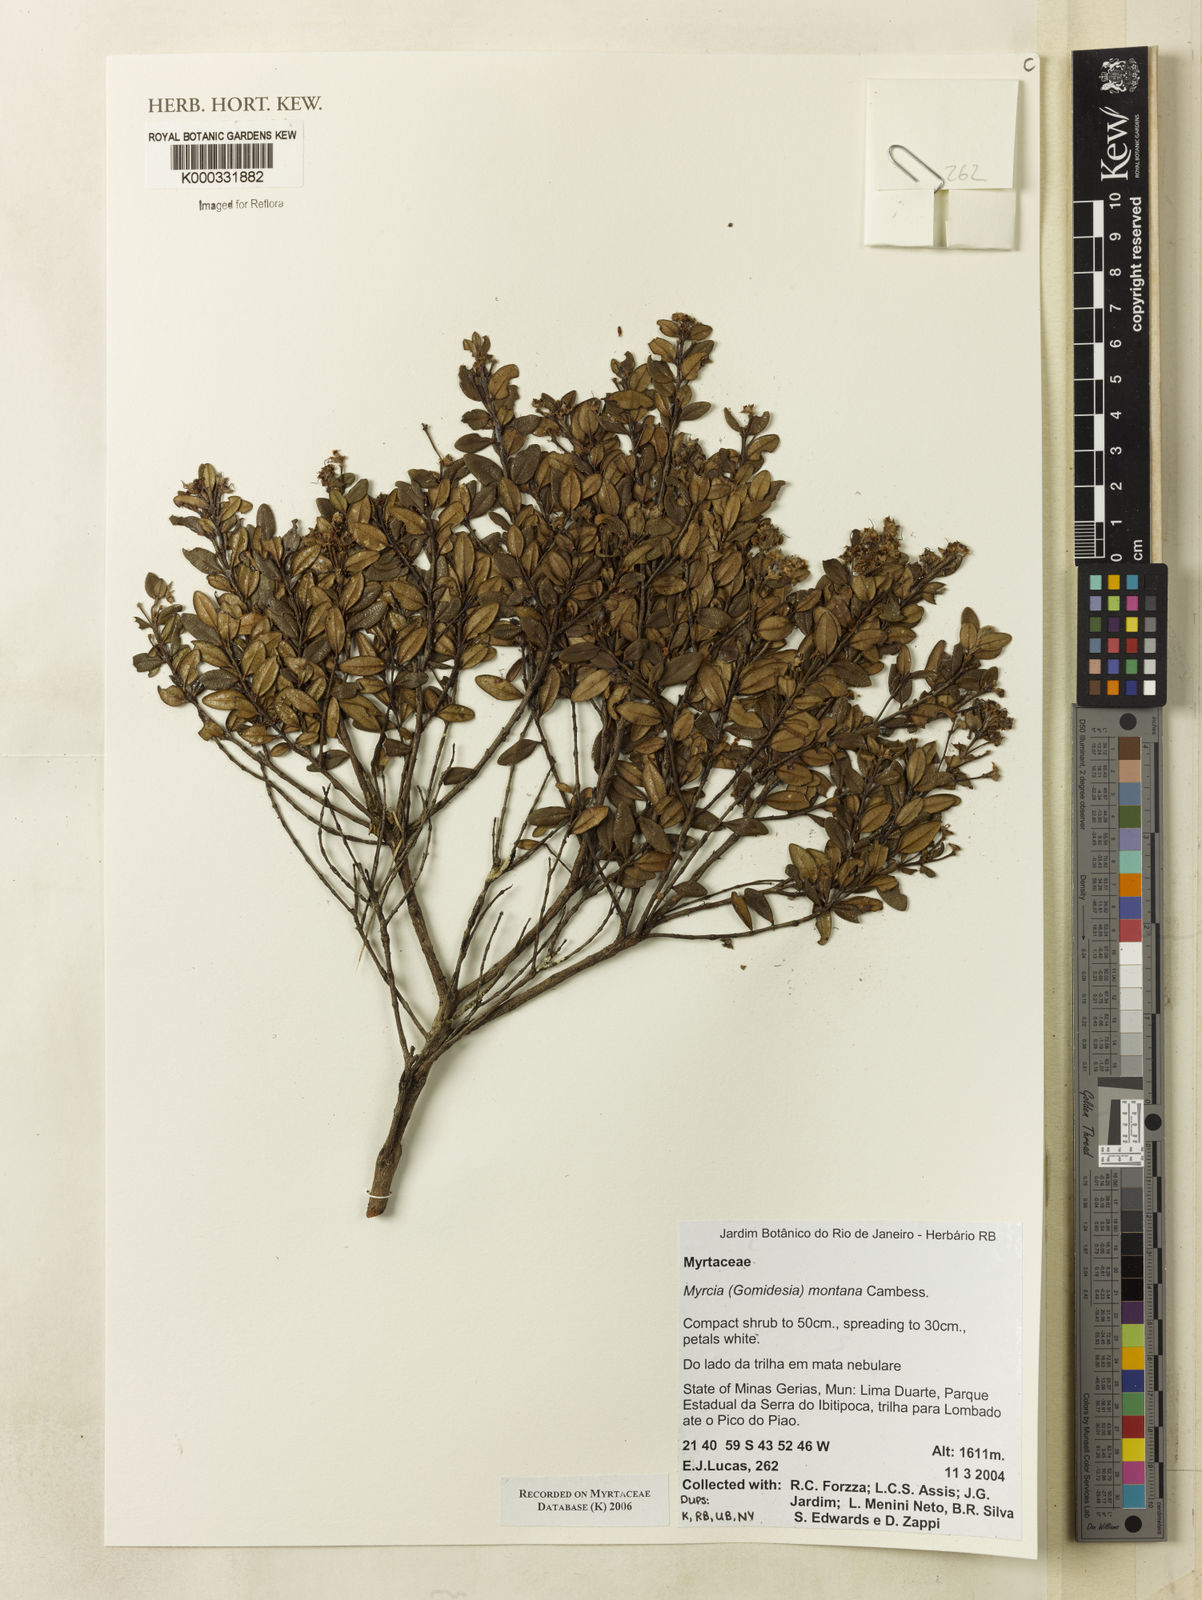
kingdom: Plantae
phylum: Tracheophyta
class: Magnoliopsida
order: Myrtales
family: Myrtaceae
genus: Myrcia
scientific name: Myrcia montana
